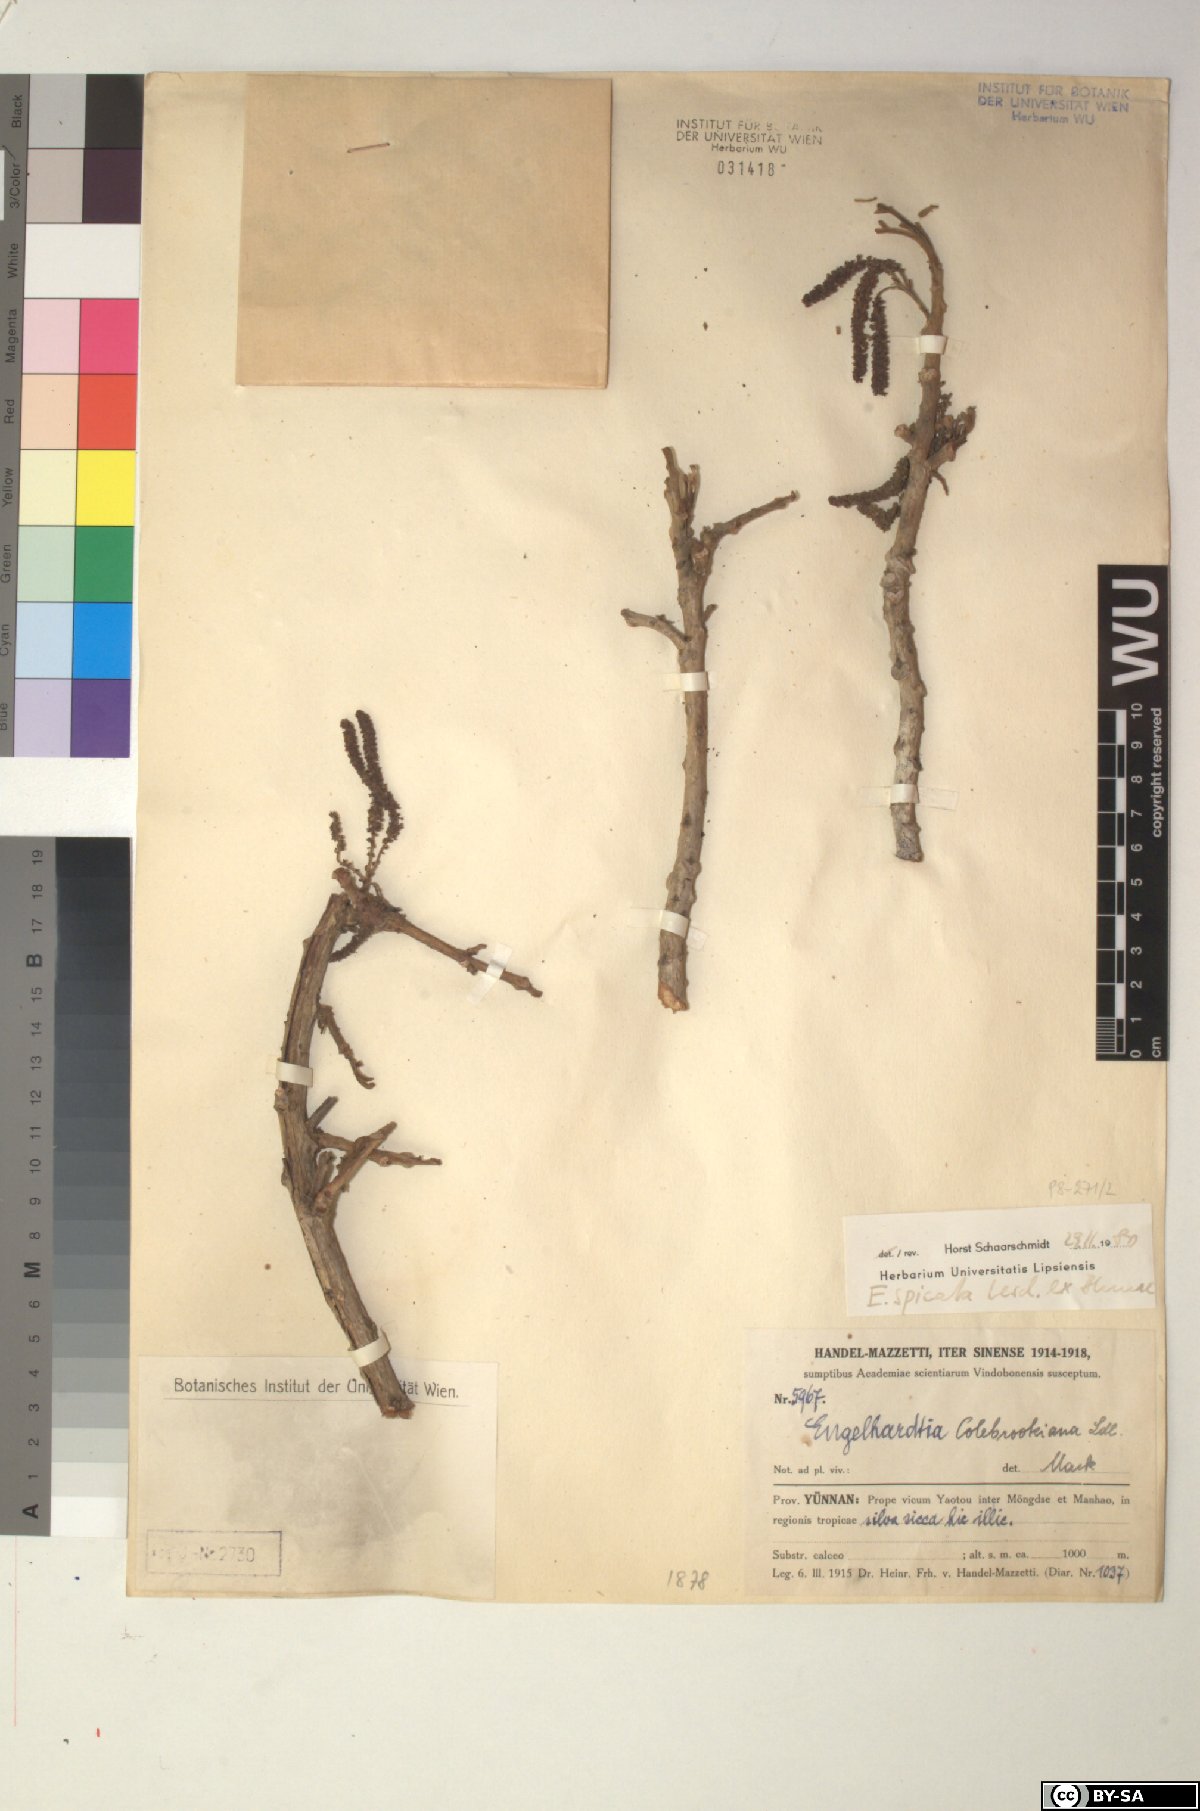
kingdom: Plantae
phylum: Tracheophyta
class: Magnoliopsida
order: Fagales
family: Juglandaceae
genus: Engelhardia
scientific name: Engelhardia spicata
